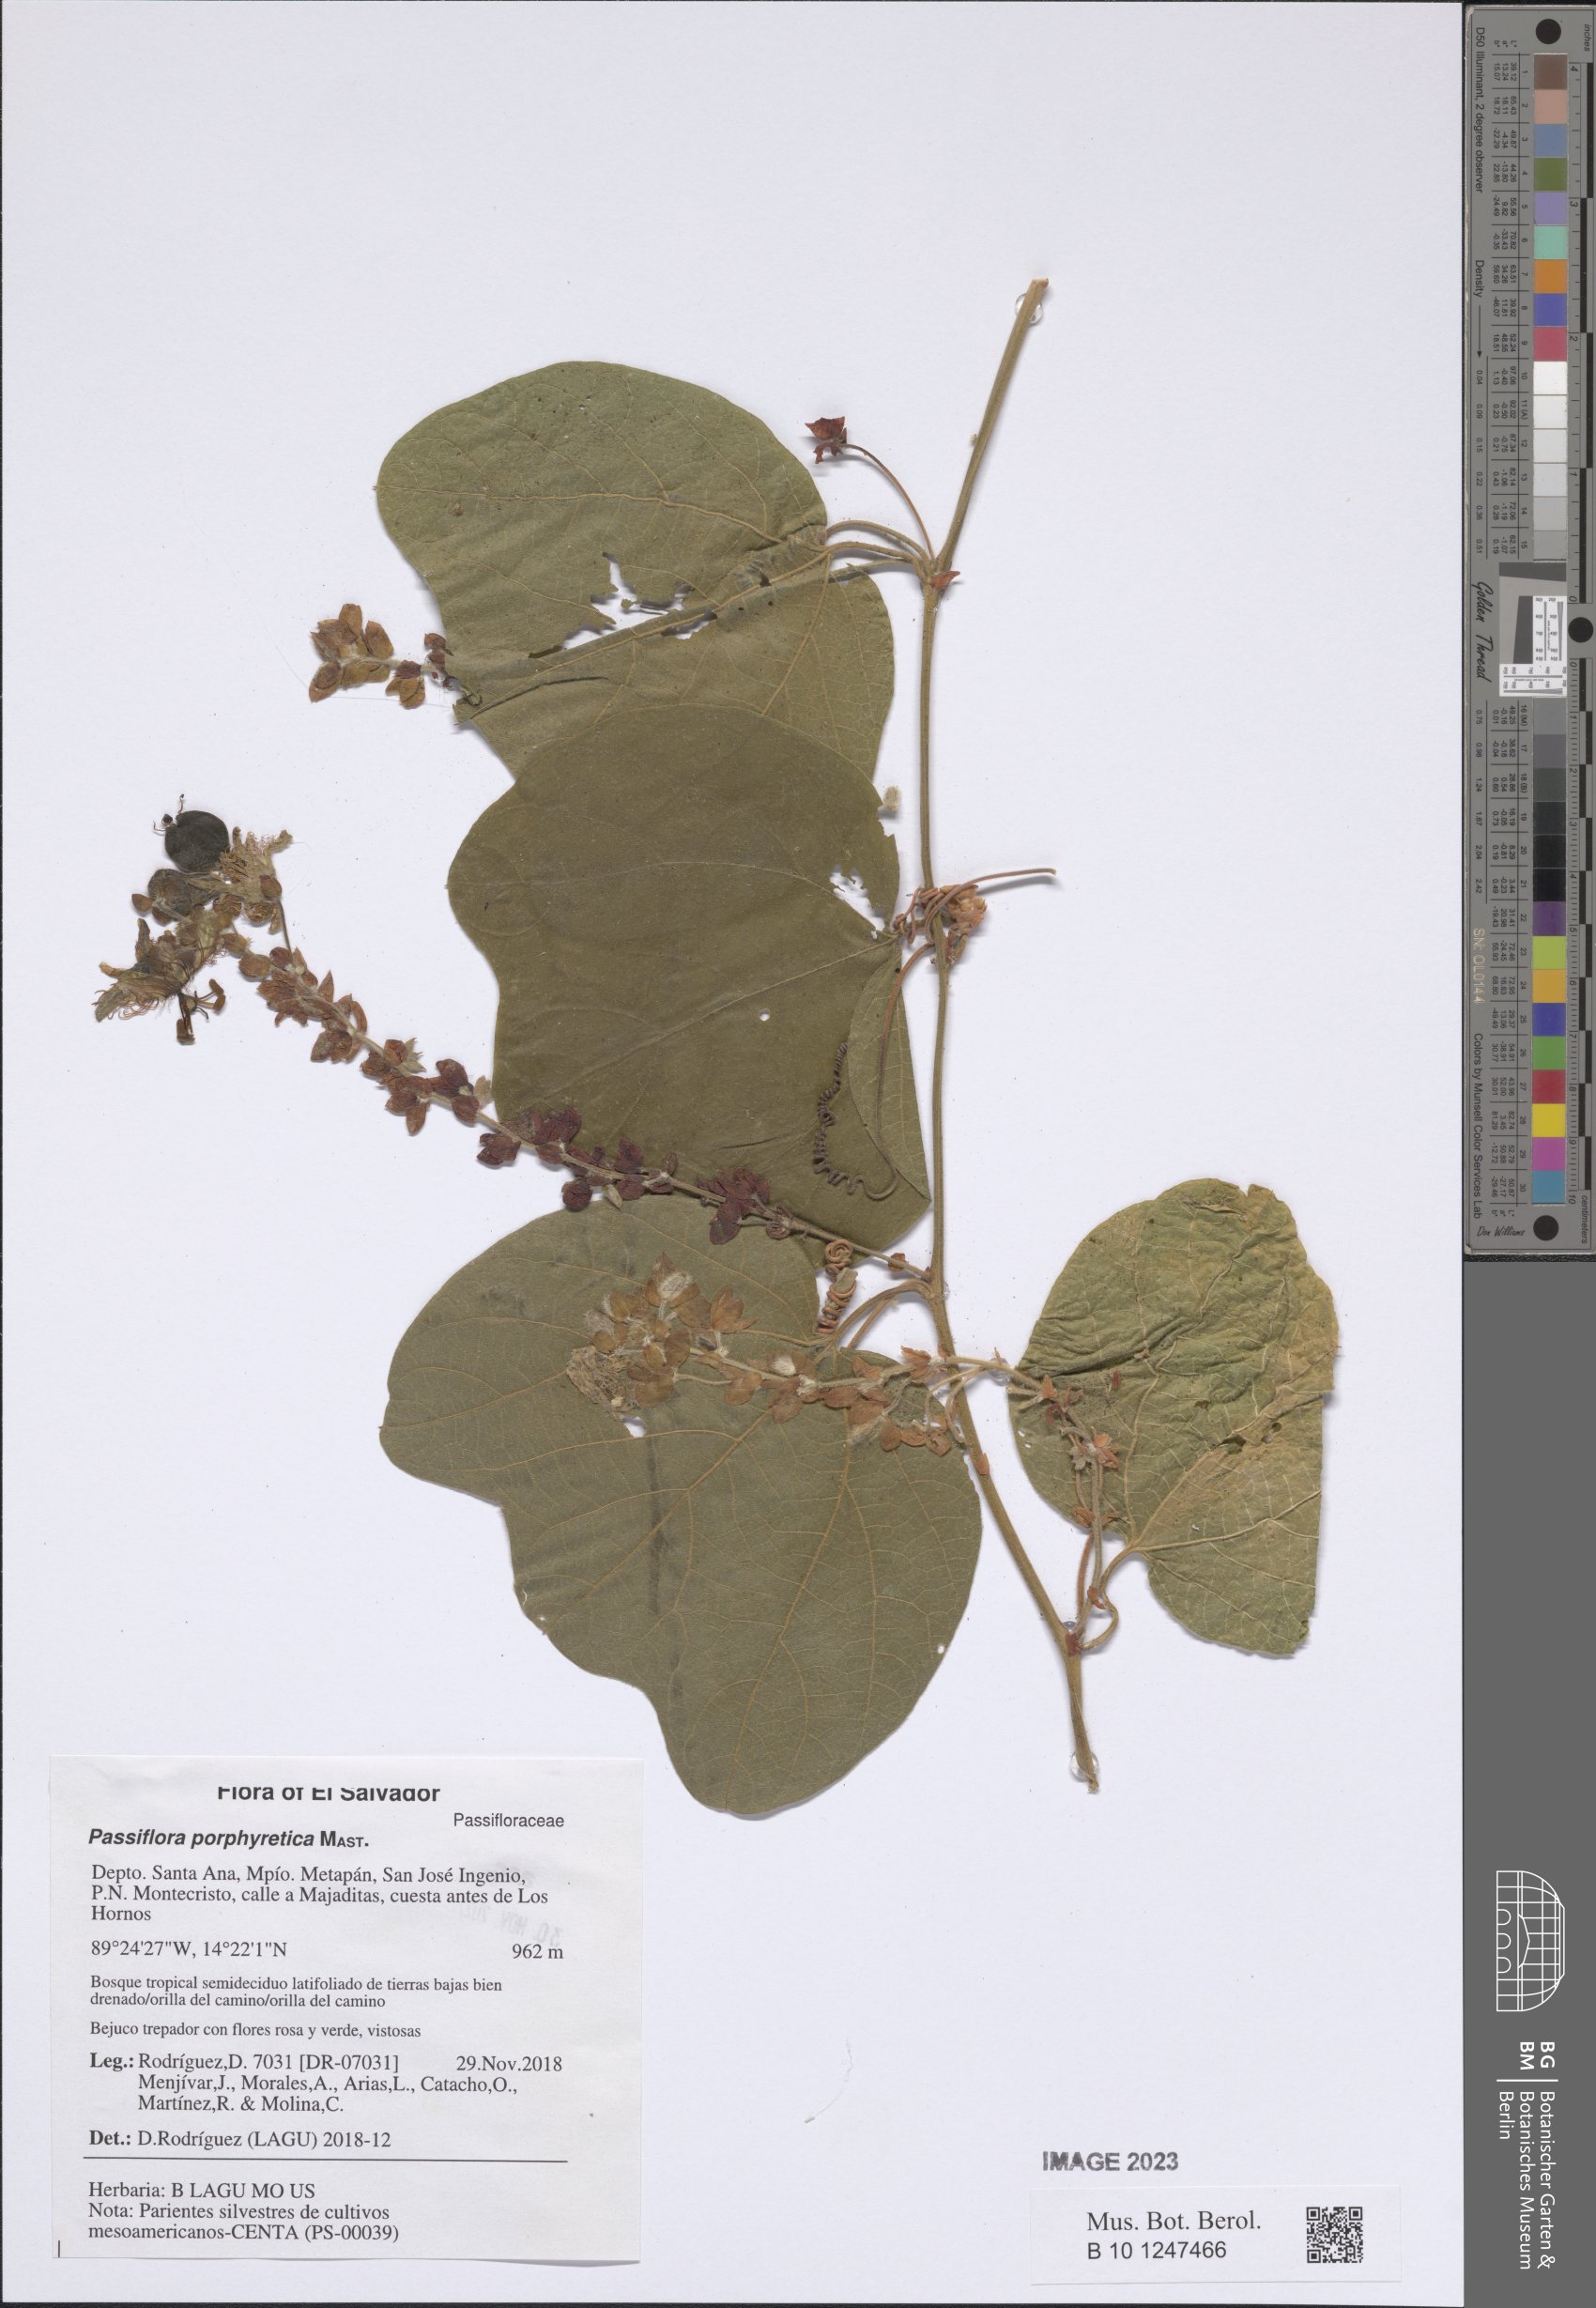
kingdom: Plantae
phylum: Tracheophyta
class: Magnoliopsida
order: Malpighiales
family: Passifloraceae
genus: Passiflora
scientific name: Passiflora porphyretica
